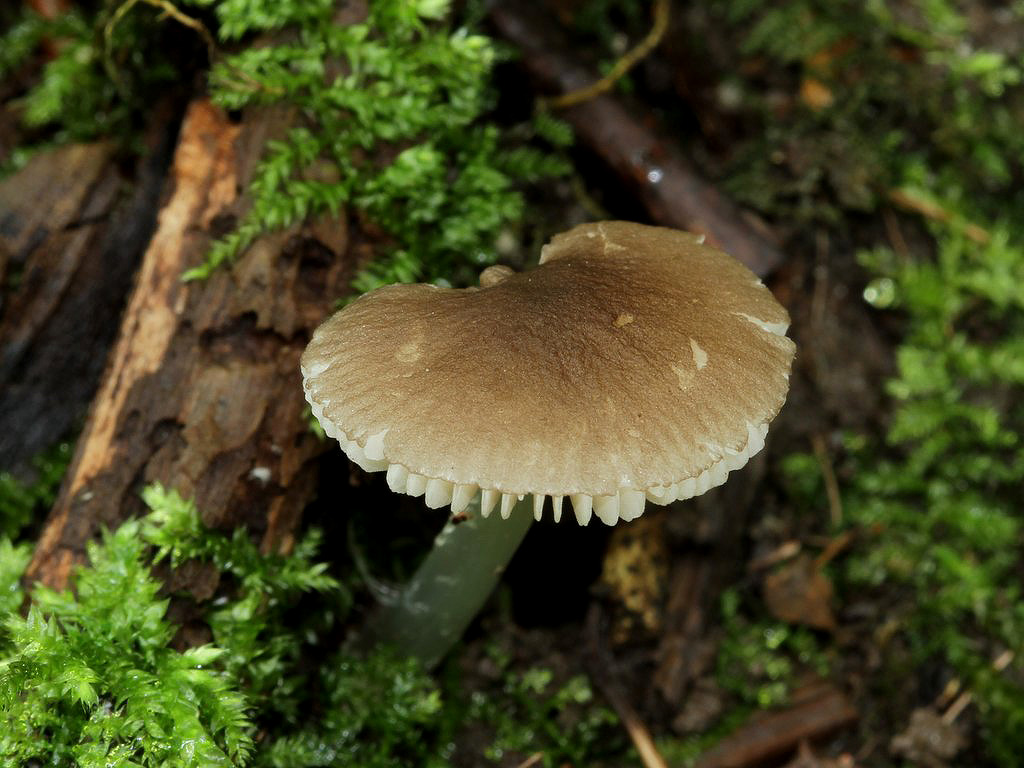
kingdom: Fungi
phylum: Basidiomycota
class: Agaricomycetes
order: Agaricales
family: Pluteaceae
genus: Pluteus
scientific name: Pluteus
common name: pudret skærmhat
